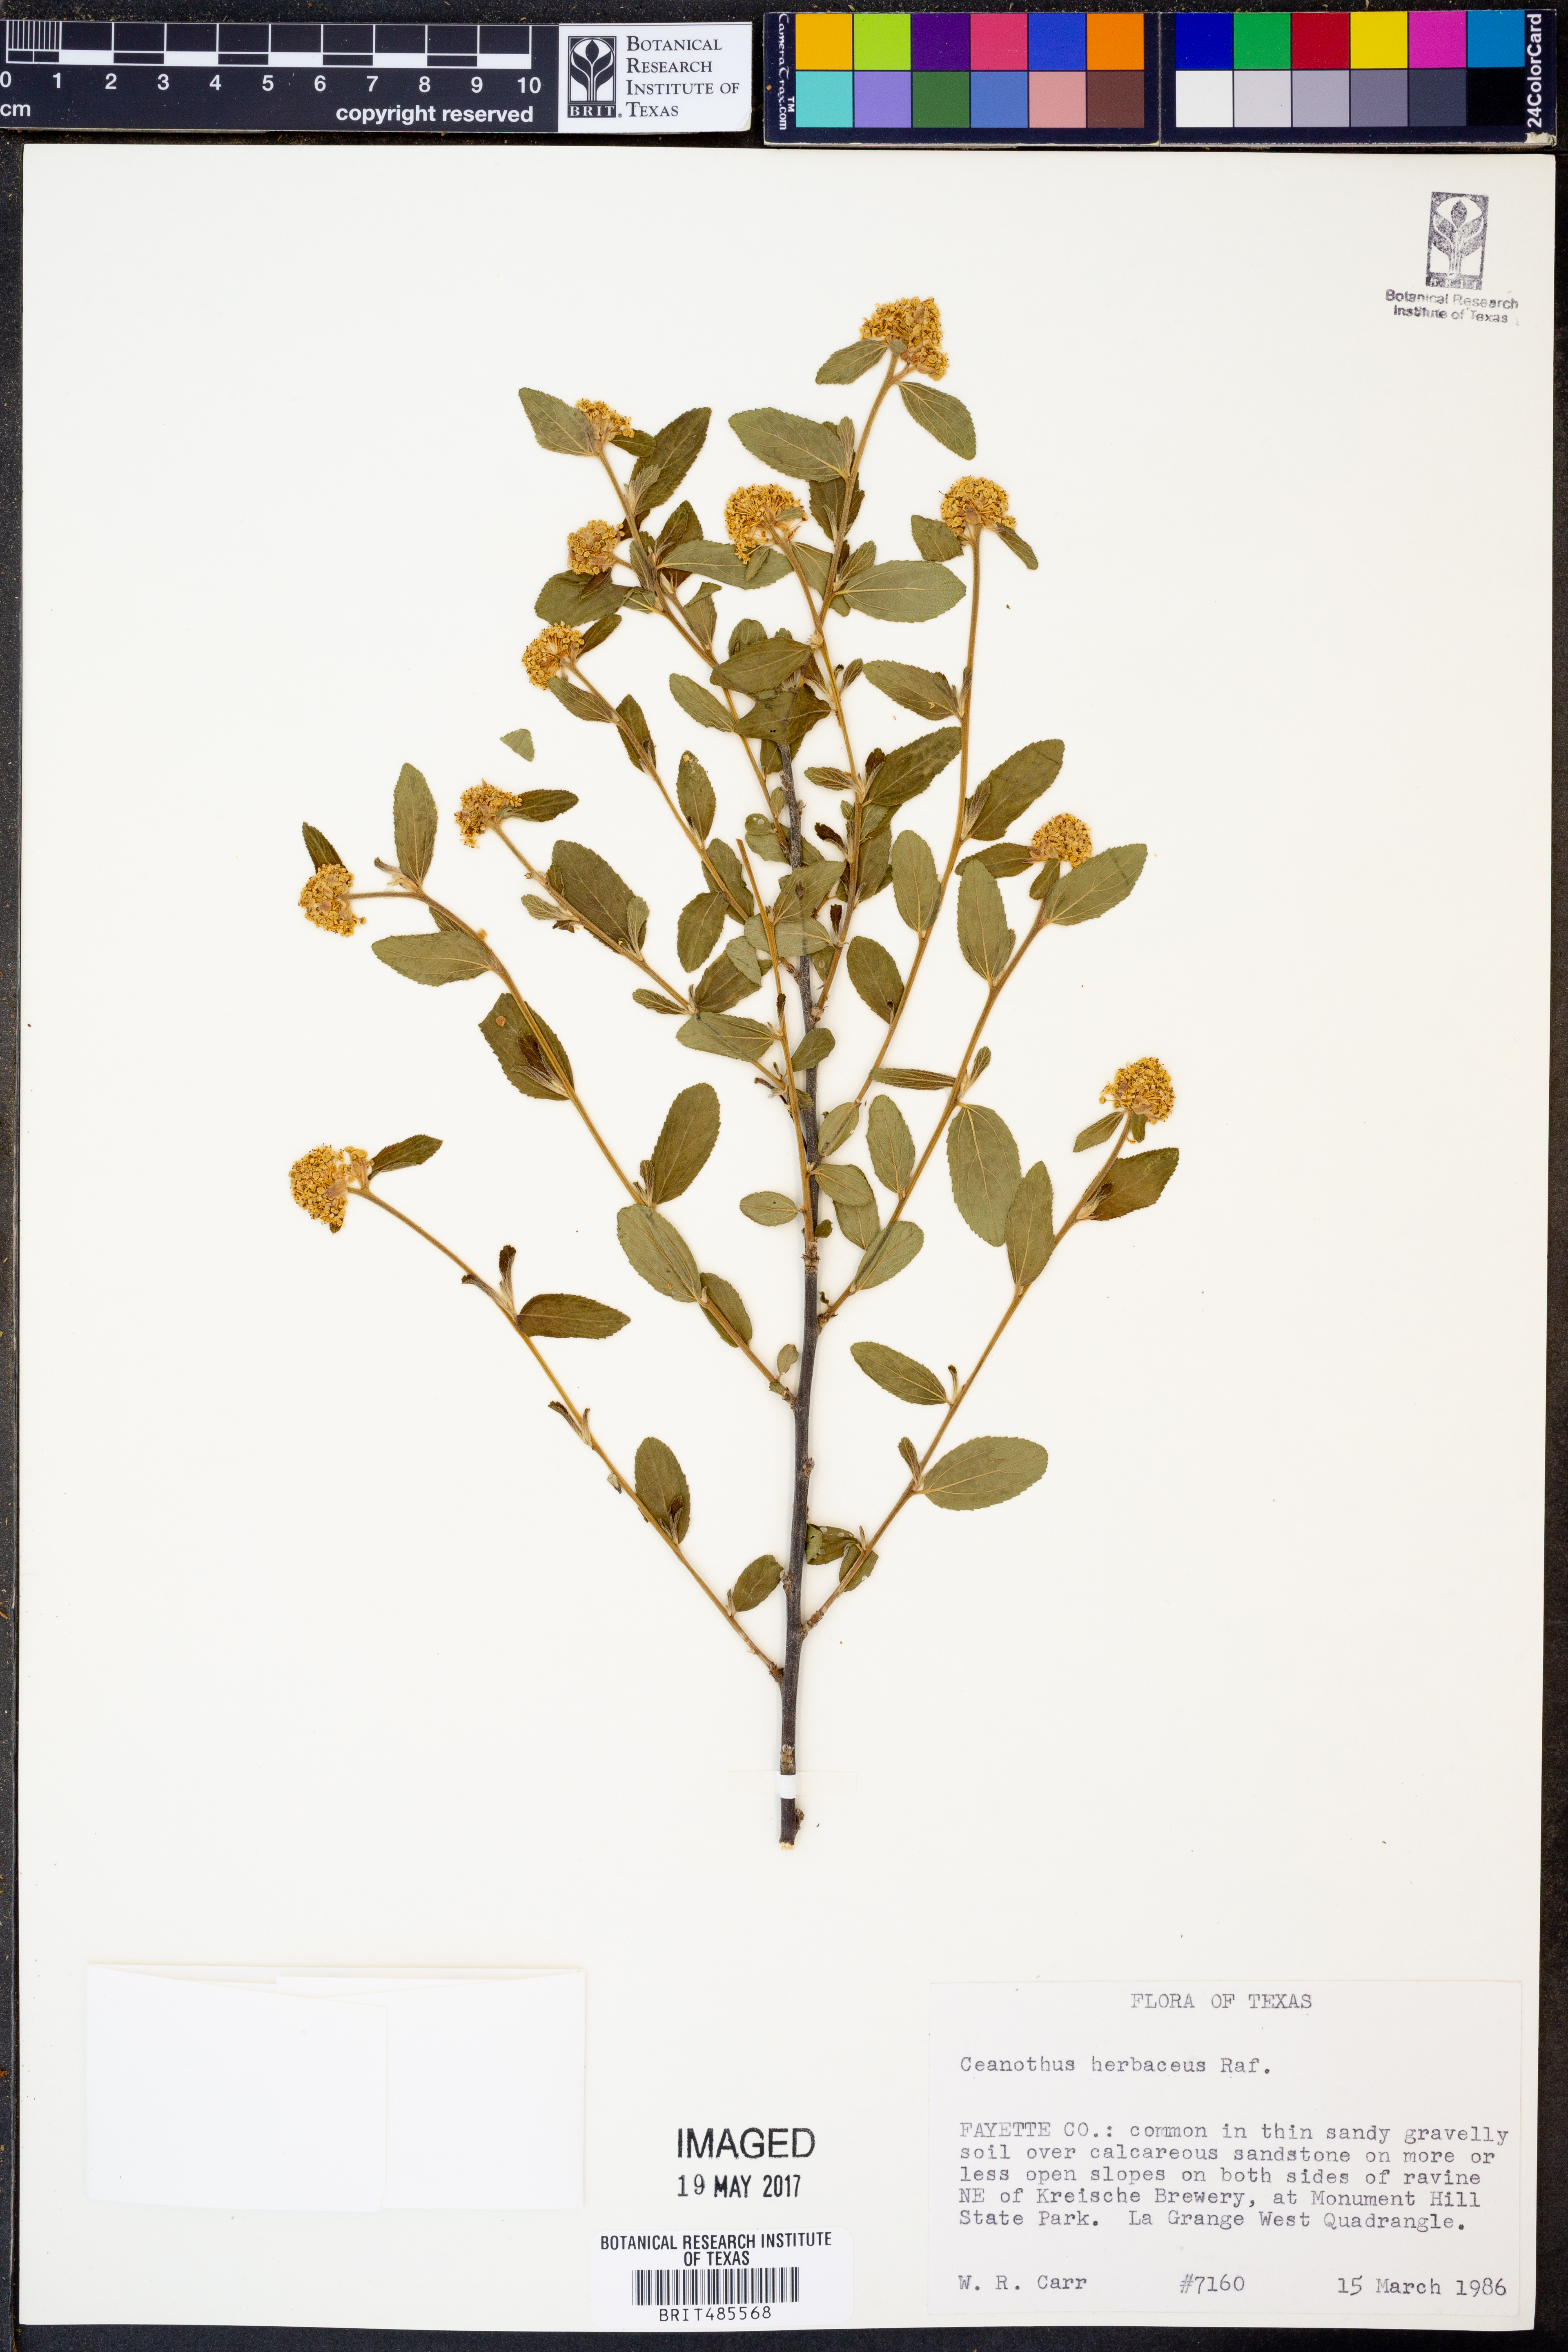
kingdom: Plantae
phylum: Tracheophyta
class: Magnoliopsida
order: Rosales
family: Rhamnaceae
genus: Ceanothus
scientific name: Ceanothus herbaceus
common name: Inland ceanothus
